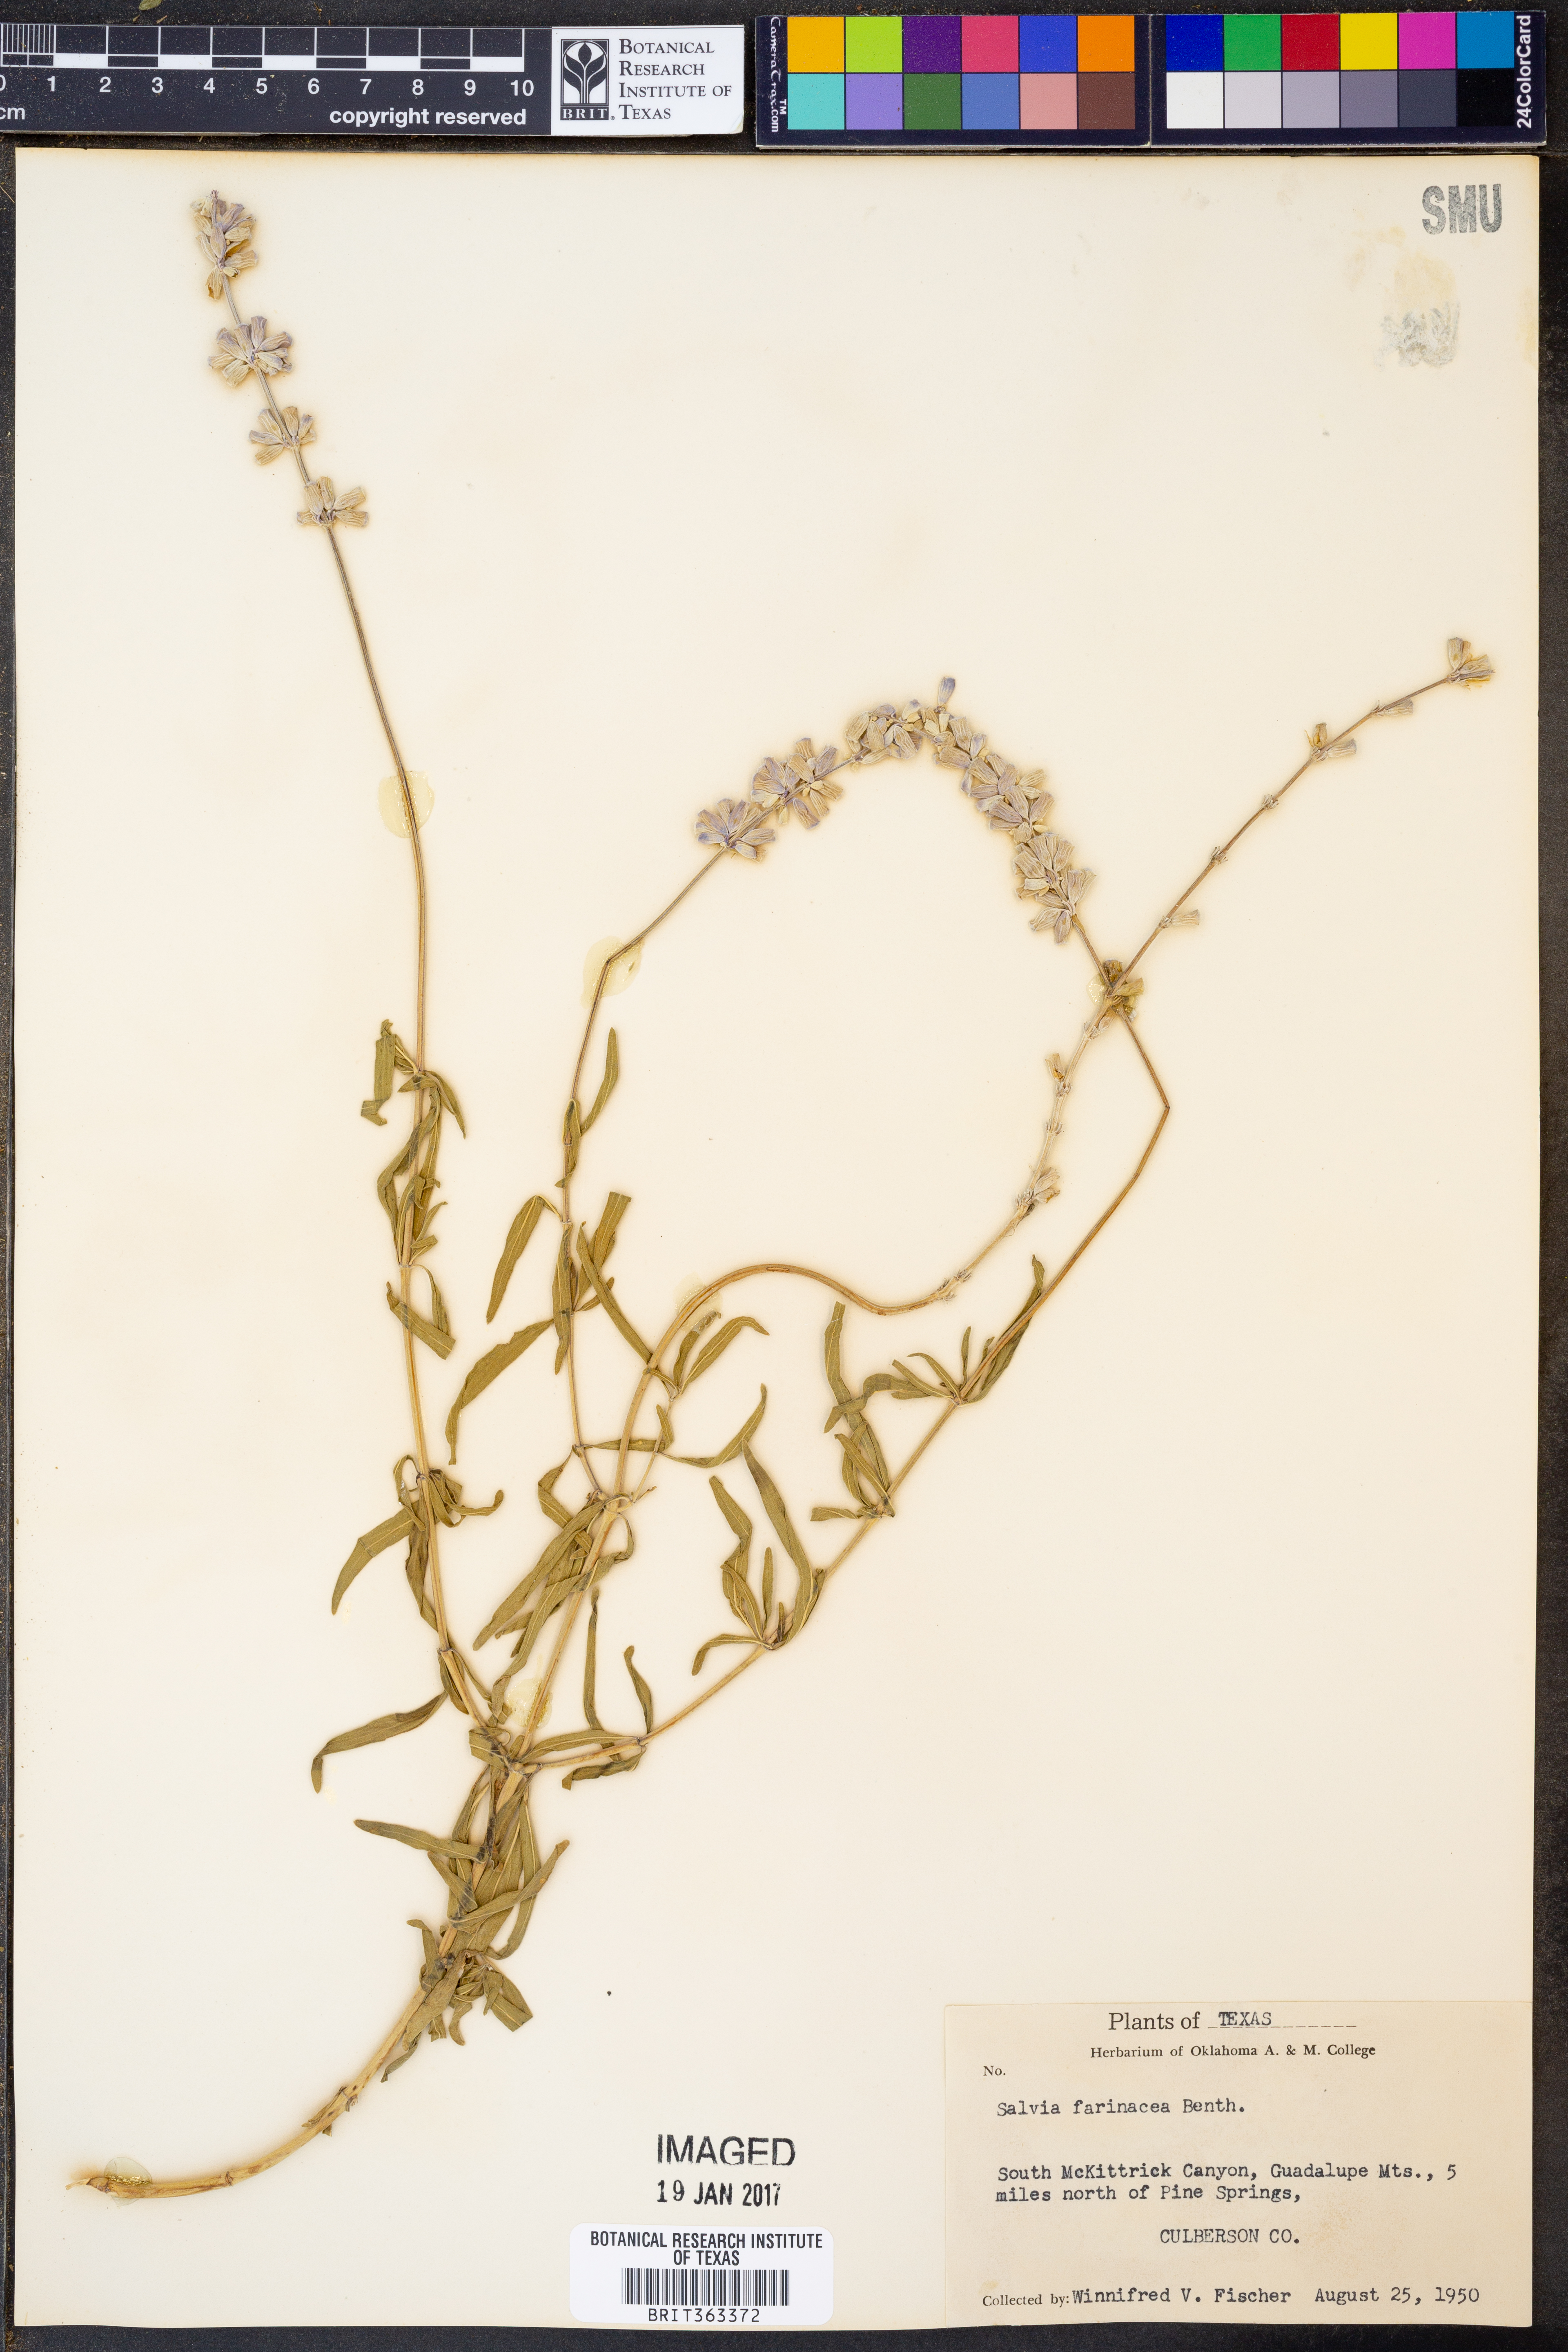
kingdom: Plantae
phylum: Tracheophyta
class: Magnoliopsida
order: Lamiales
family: Lamiaceae
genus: Salvia
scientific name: Salvia farinacea
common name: Mealy sage
